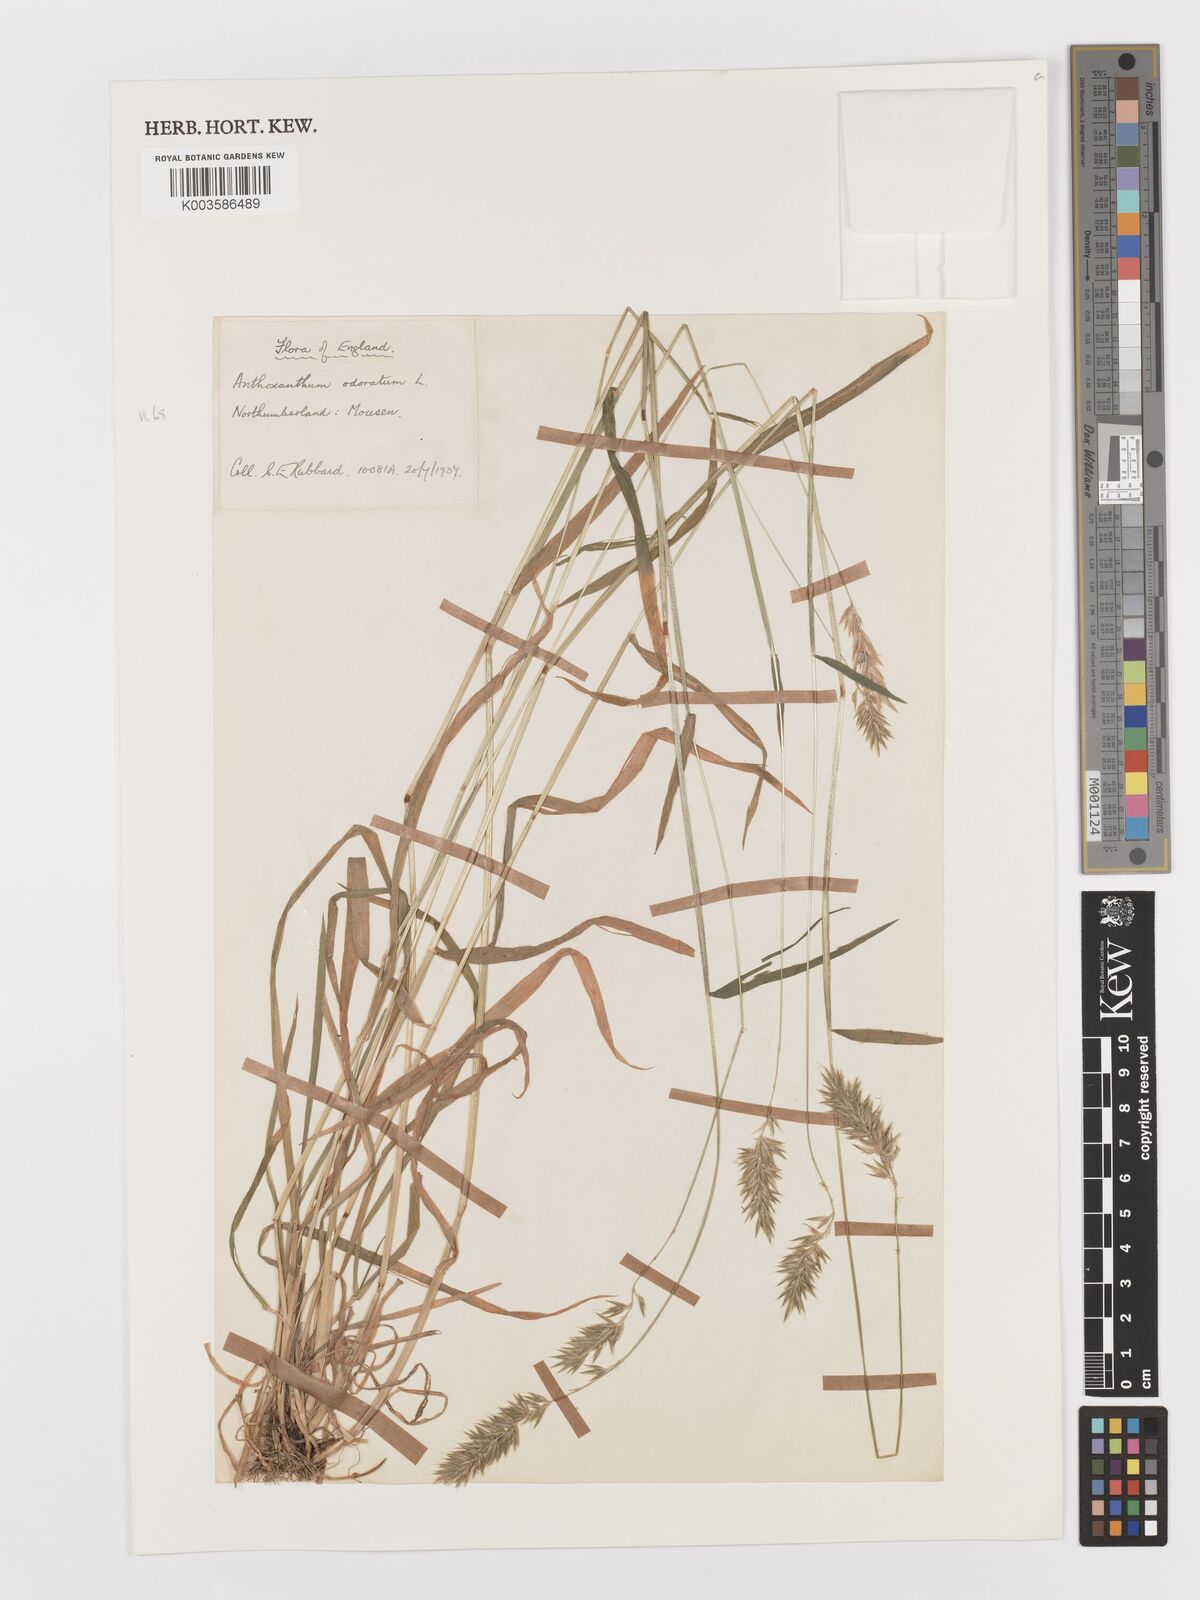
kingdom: Plantae
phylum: Tracheophyta
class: Liliopsida
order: Poales
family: Poaceae
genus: Anthoxanthum
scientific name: Anthoxanthum odoratum
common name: Sweet vernalgrass
